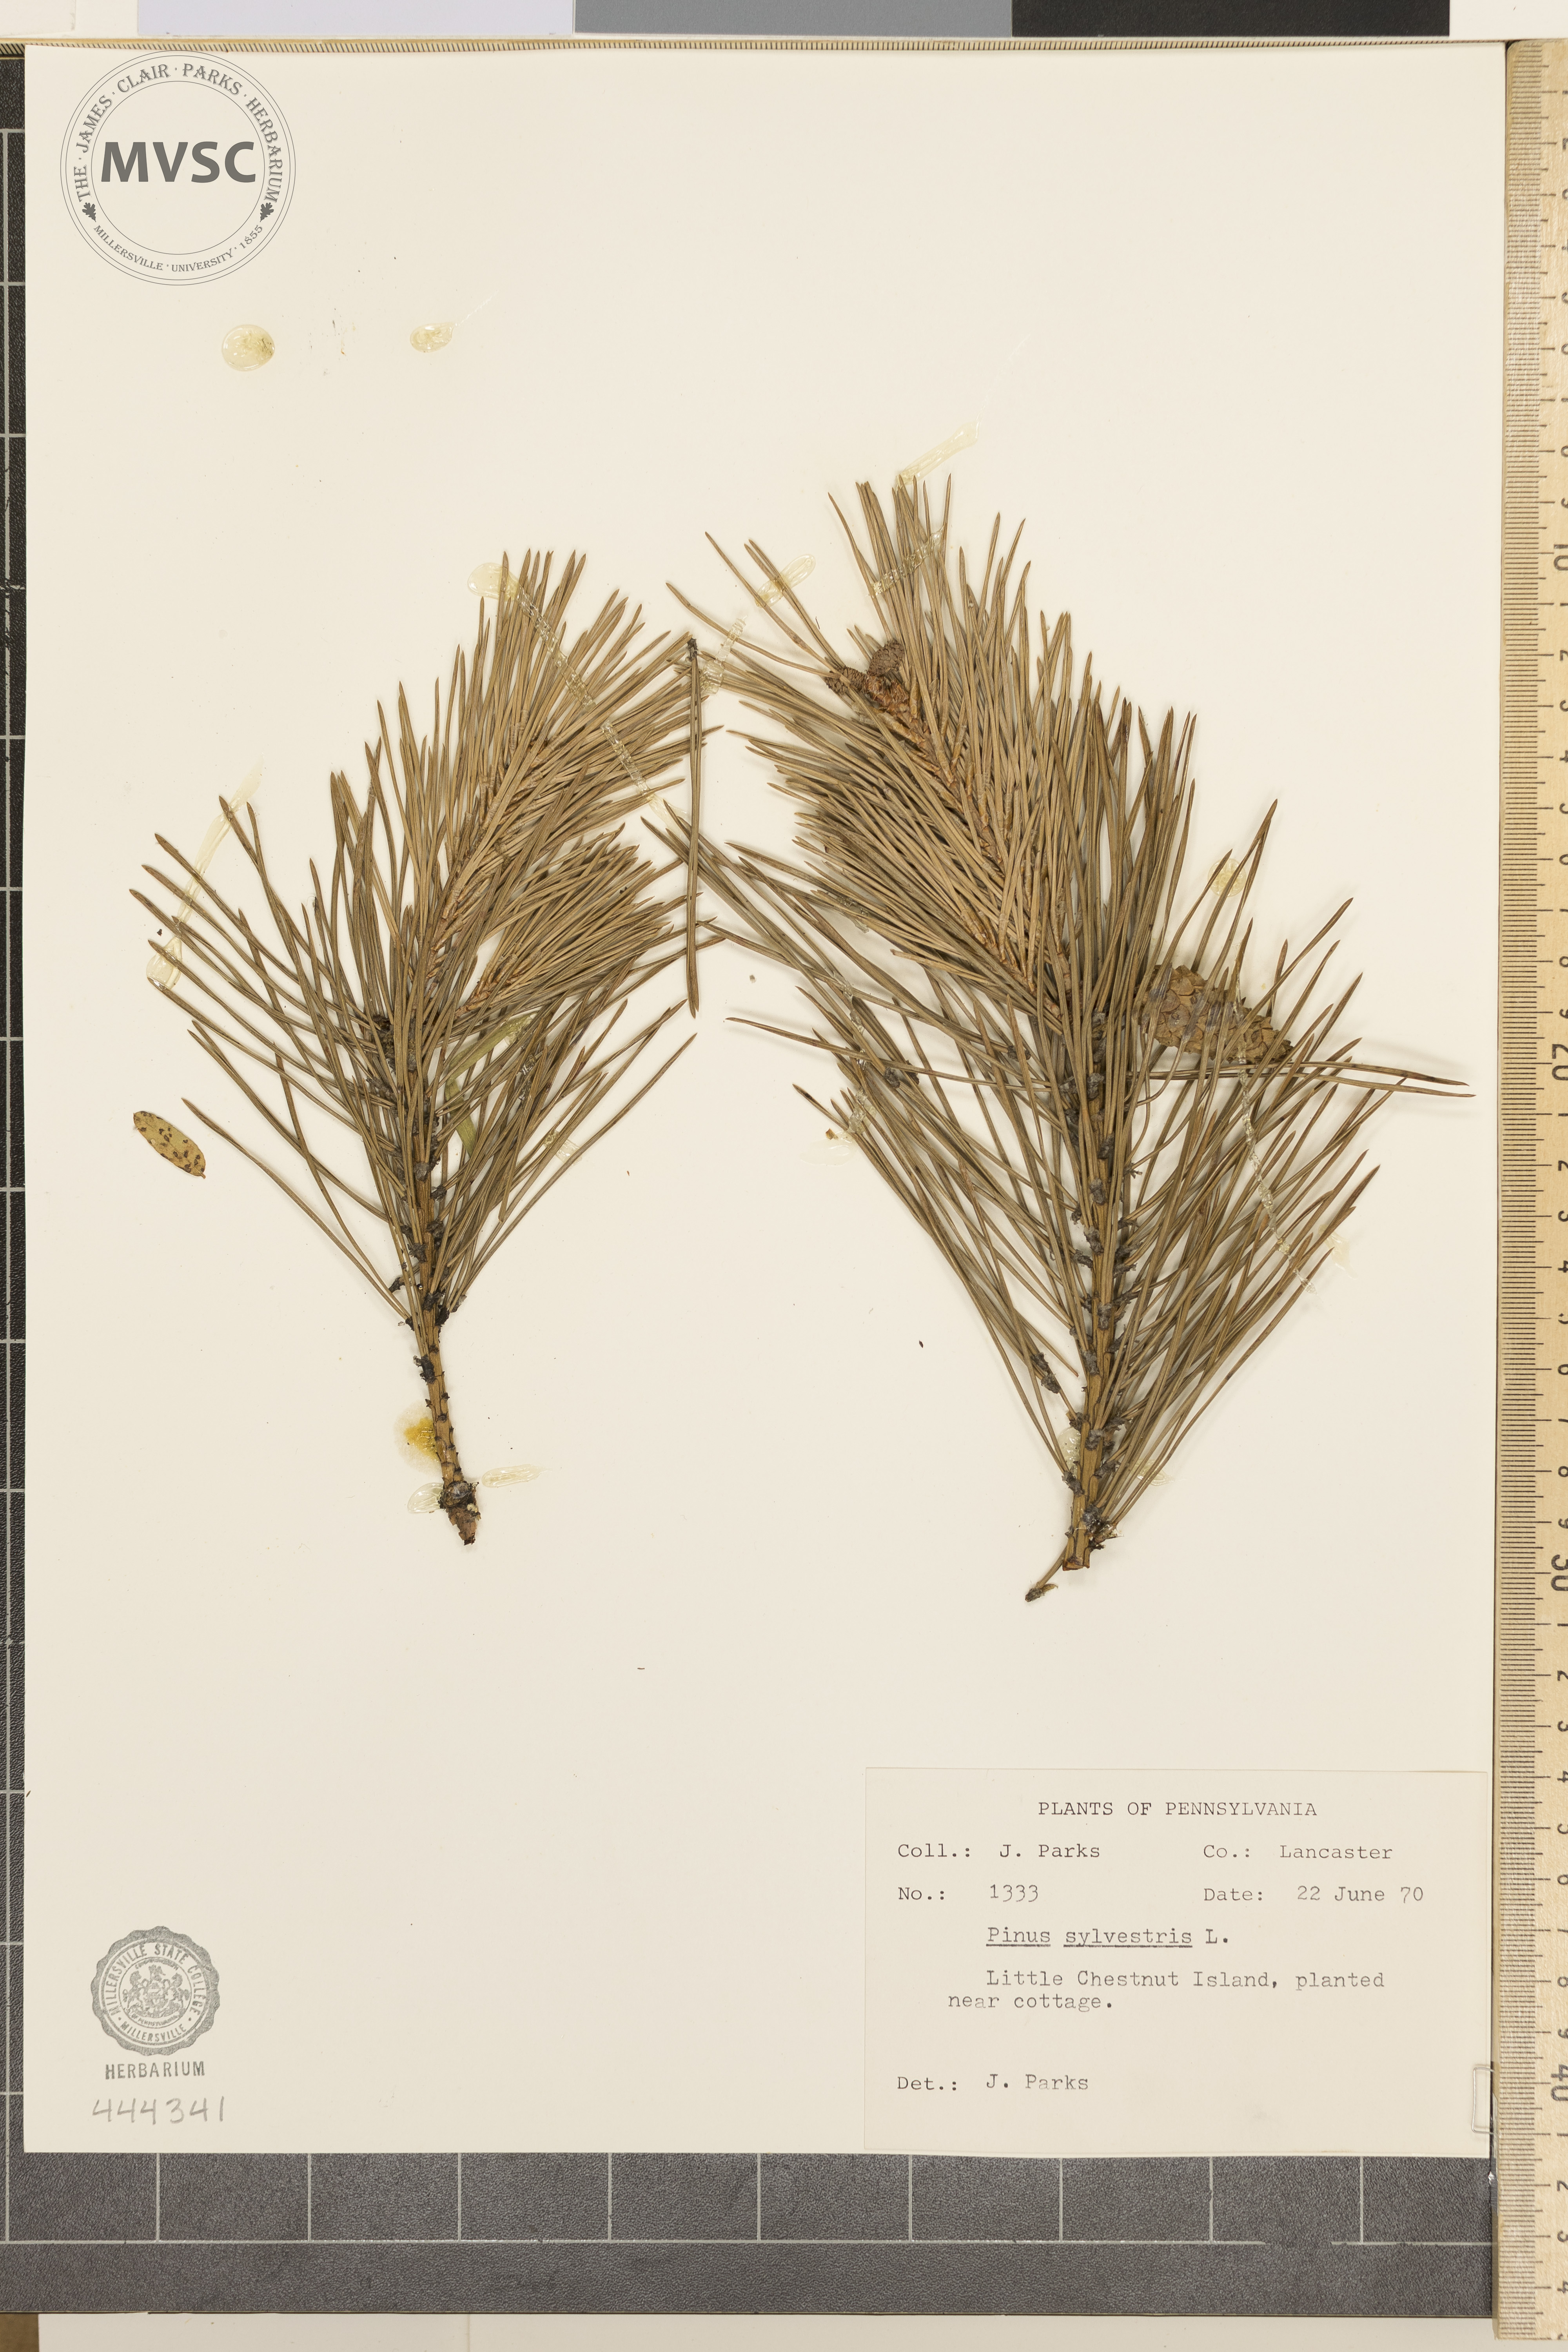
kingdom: Plantae
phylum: Tracheophyta
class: Pinopsida
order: Pinales
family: Pinaceae
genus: Pinus
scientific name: Pinus sylvestris
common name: Scots pine
